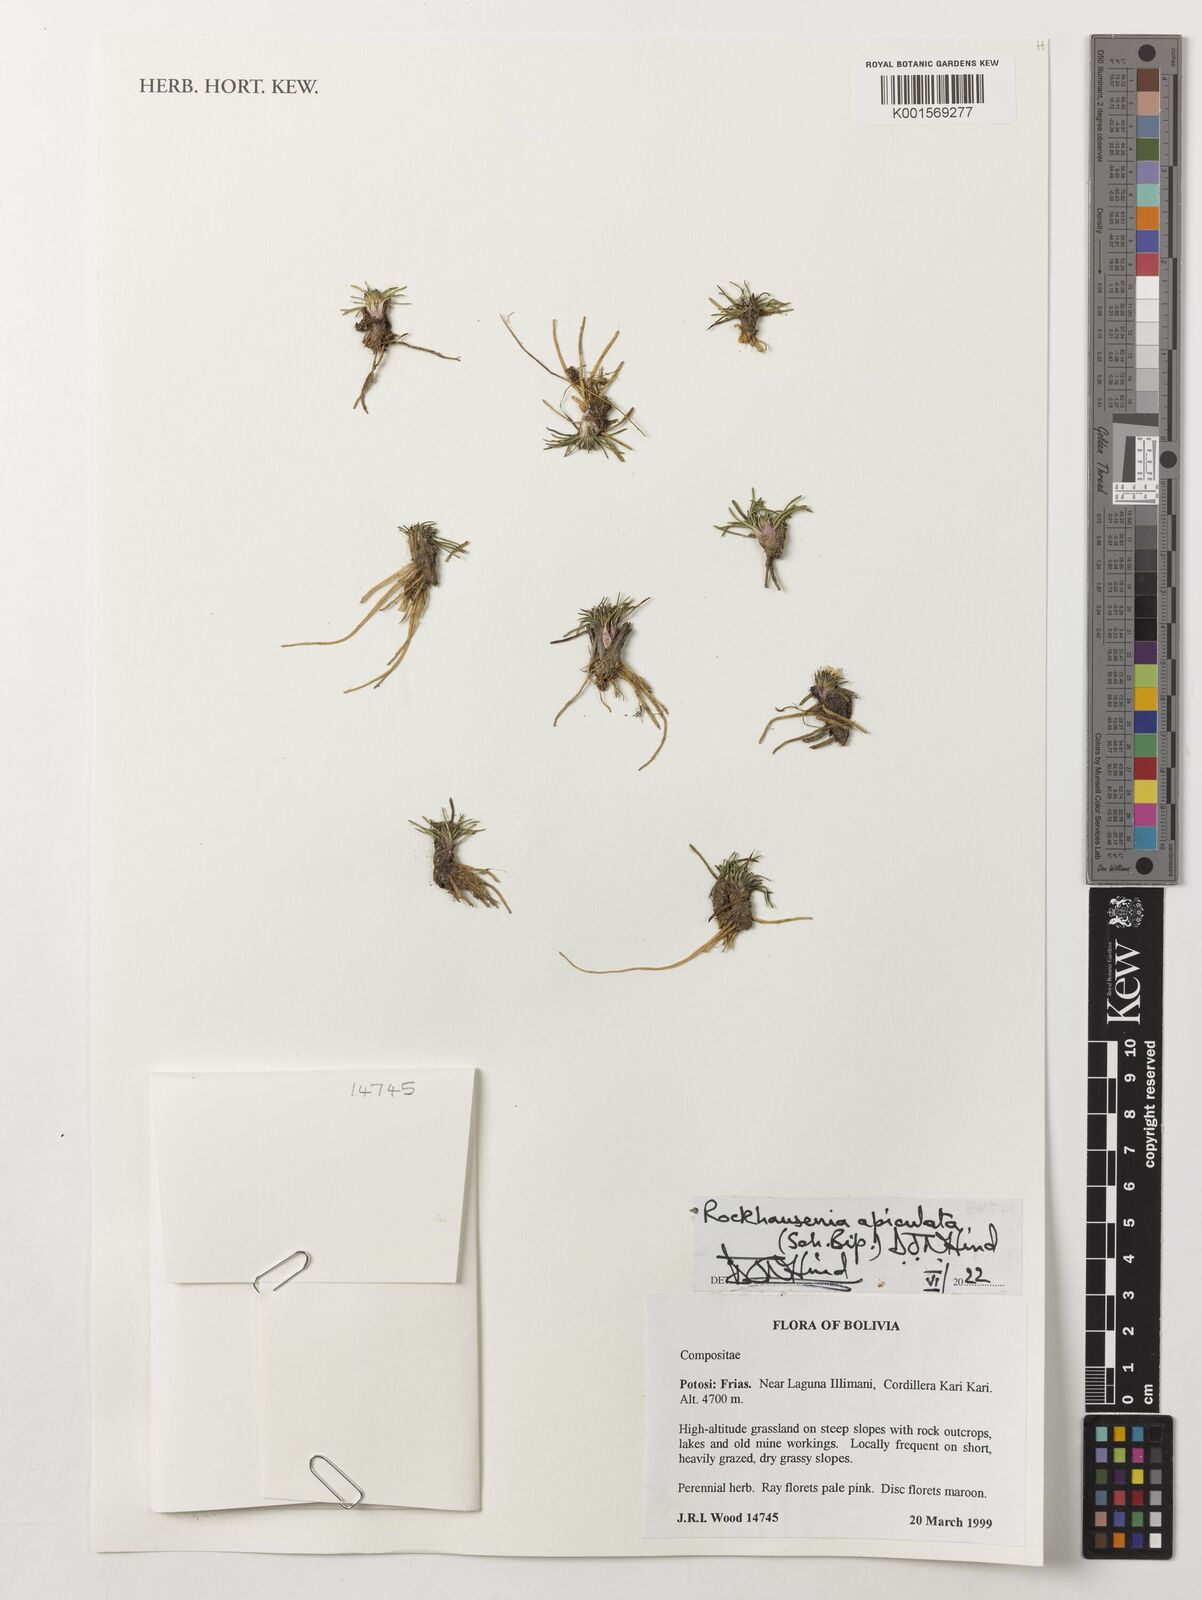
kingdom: Plantae
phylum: Tracheophyta
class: Magnoliopsida
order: Asterales
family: Asteraceae
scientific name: Asteraceae
